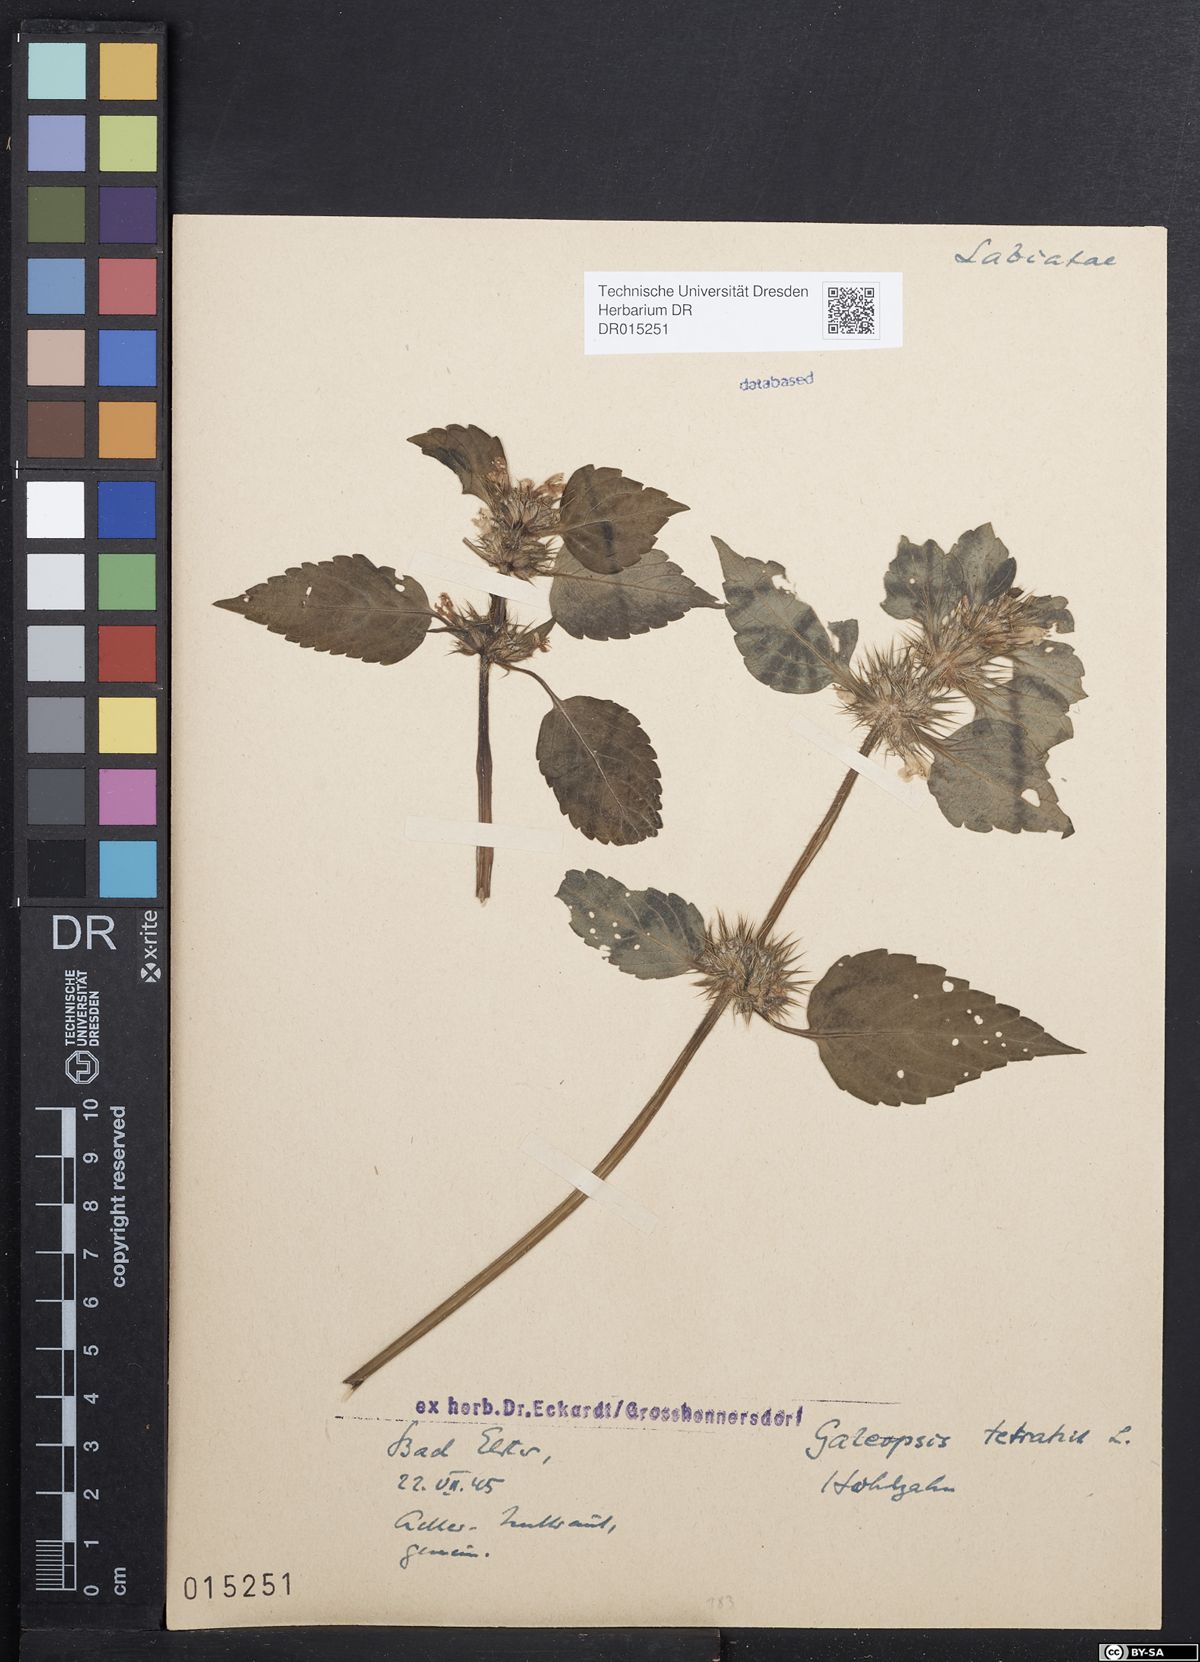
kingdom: Plantae
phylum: Tracheophyta
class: Magnoliopsida
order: Lamiales
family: Lamiaceae
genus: Galeopsis
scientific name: Galeopsis tetrahit
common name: Common hemp-nettle
